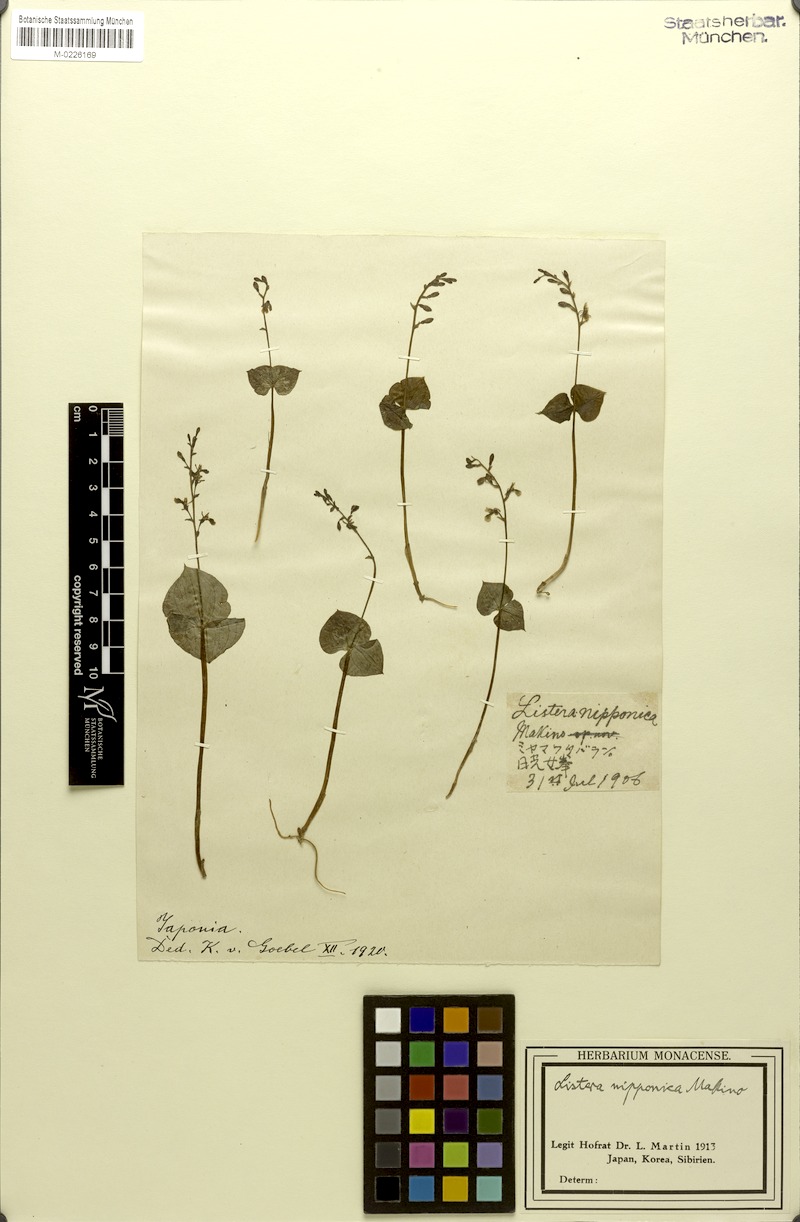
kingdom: Plantae
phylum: Tracheophyta
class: Liliopsida
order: Asparagales
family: Orchidaceae
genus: Neottia
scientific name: Neottia nipponica
